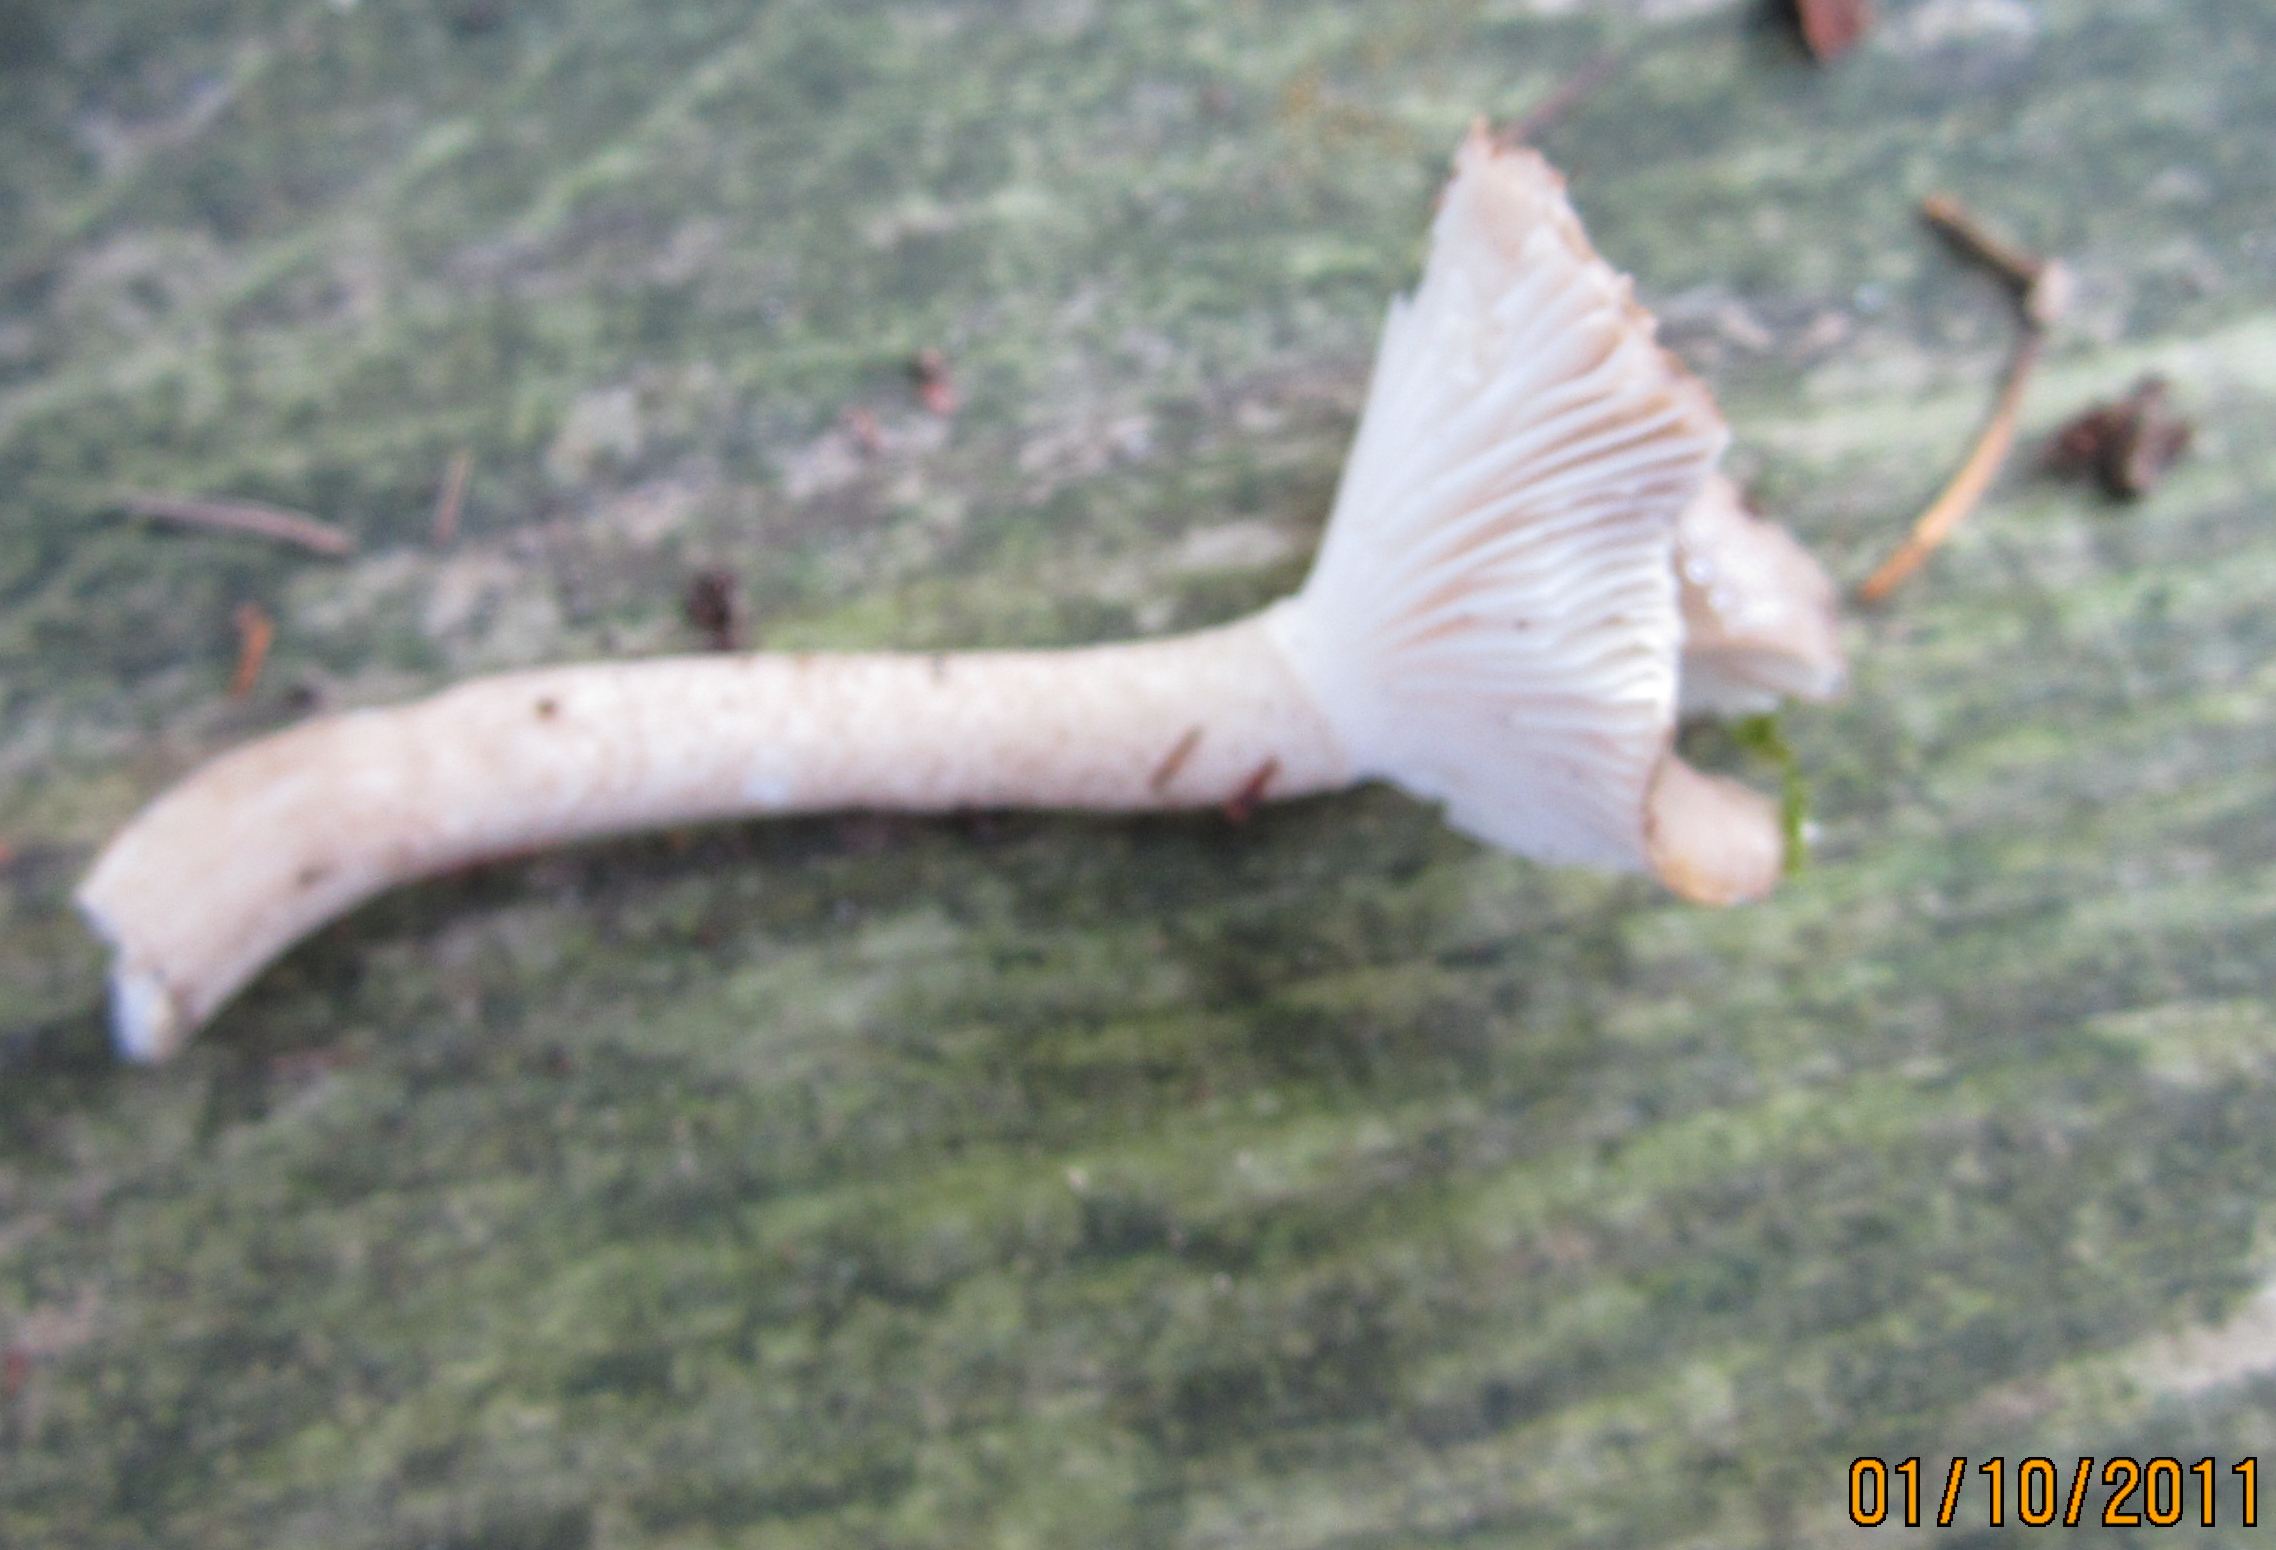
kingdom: Fungi
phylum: Basidiomycota
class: Agaricomycetes
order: Agaricales
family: Hygrophoraceae
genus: Hygrophorus
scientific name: Hygrophorus pustulatus
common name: mørkprikket sneglehat
